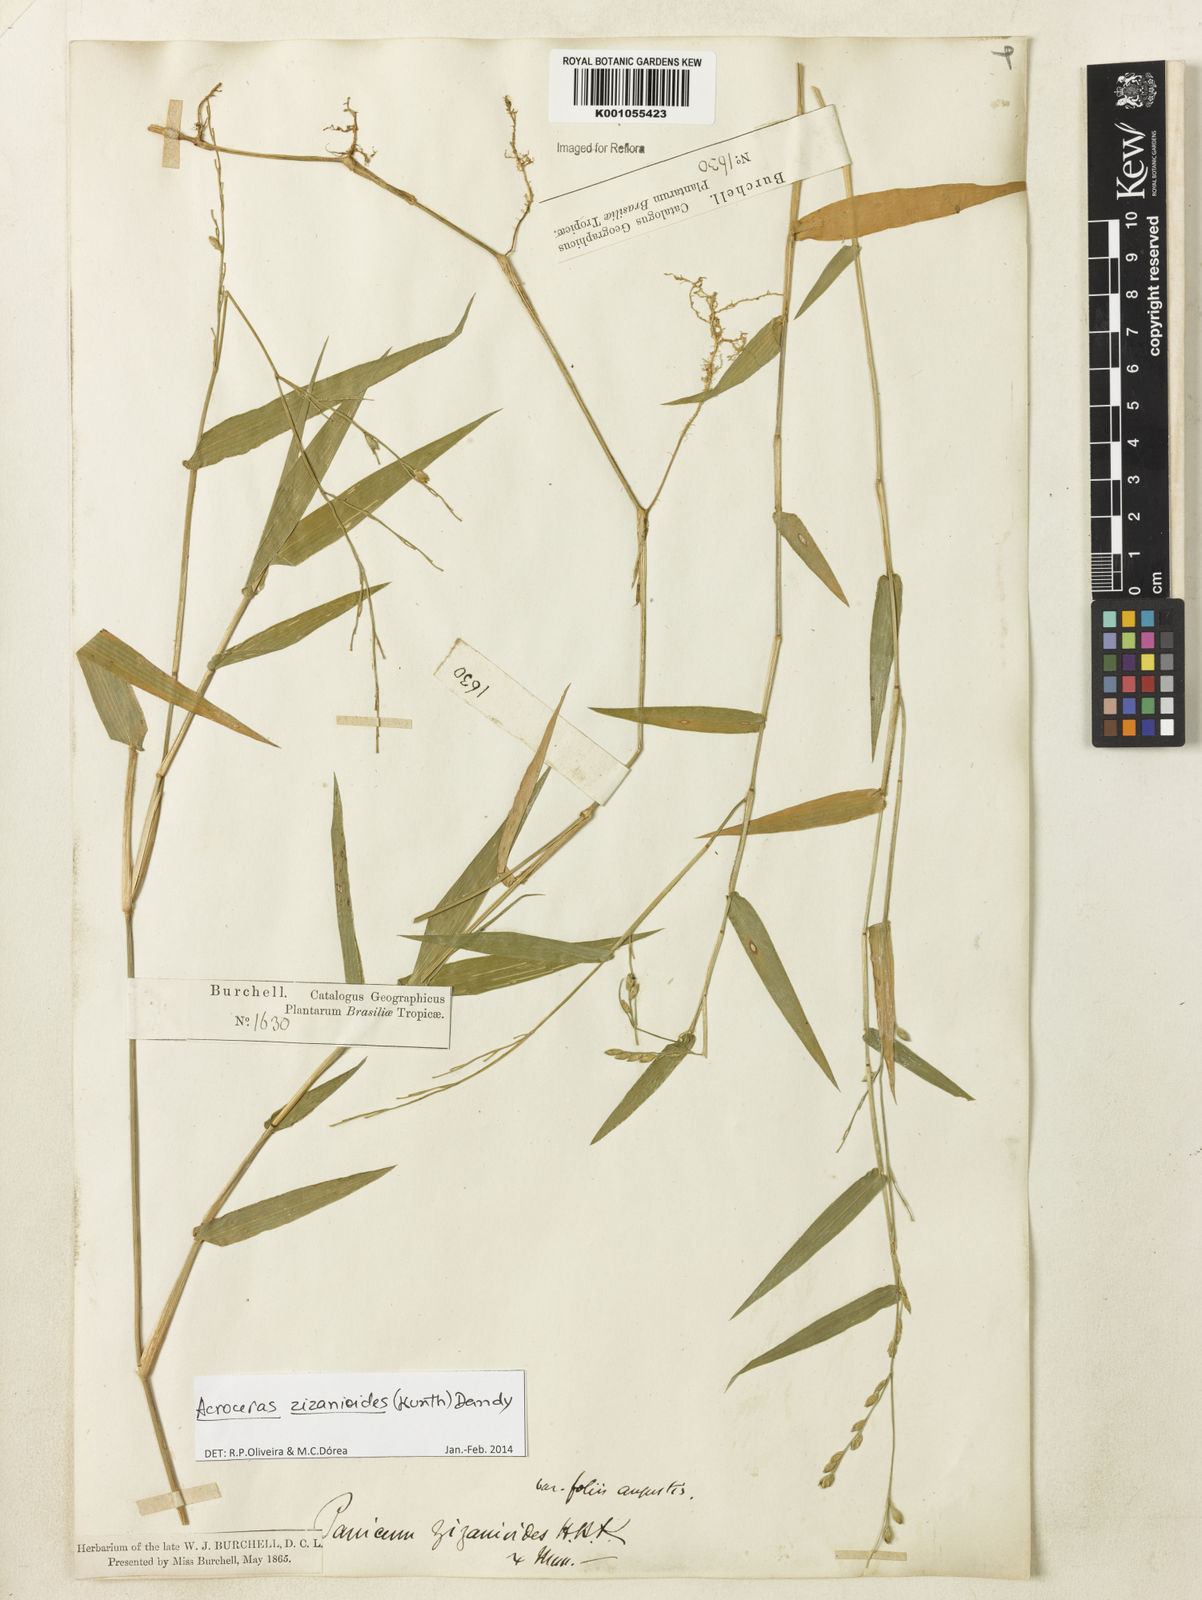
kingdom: Plantae
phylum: Tracheophyta
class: Liliopsida
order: Poales
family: Poaceae
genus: Acroceras
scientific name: Acroceras zizanioides
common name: Oat grass
